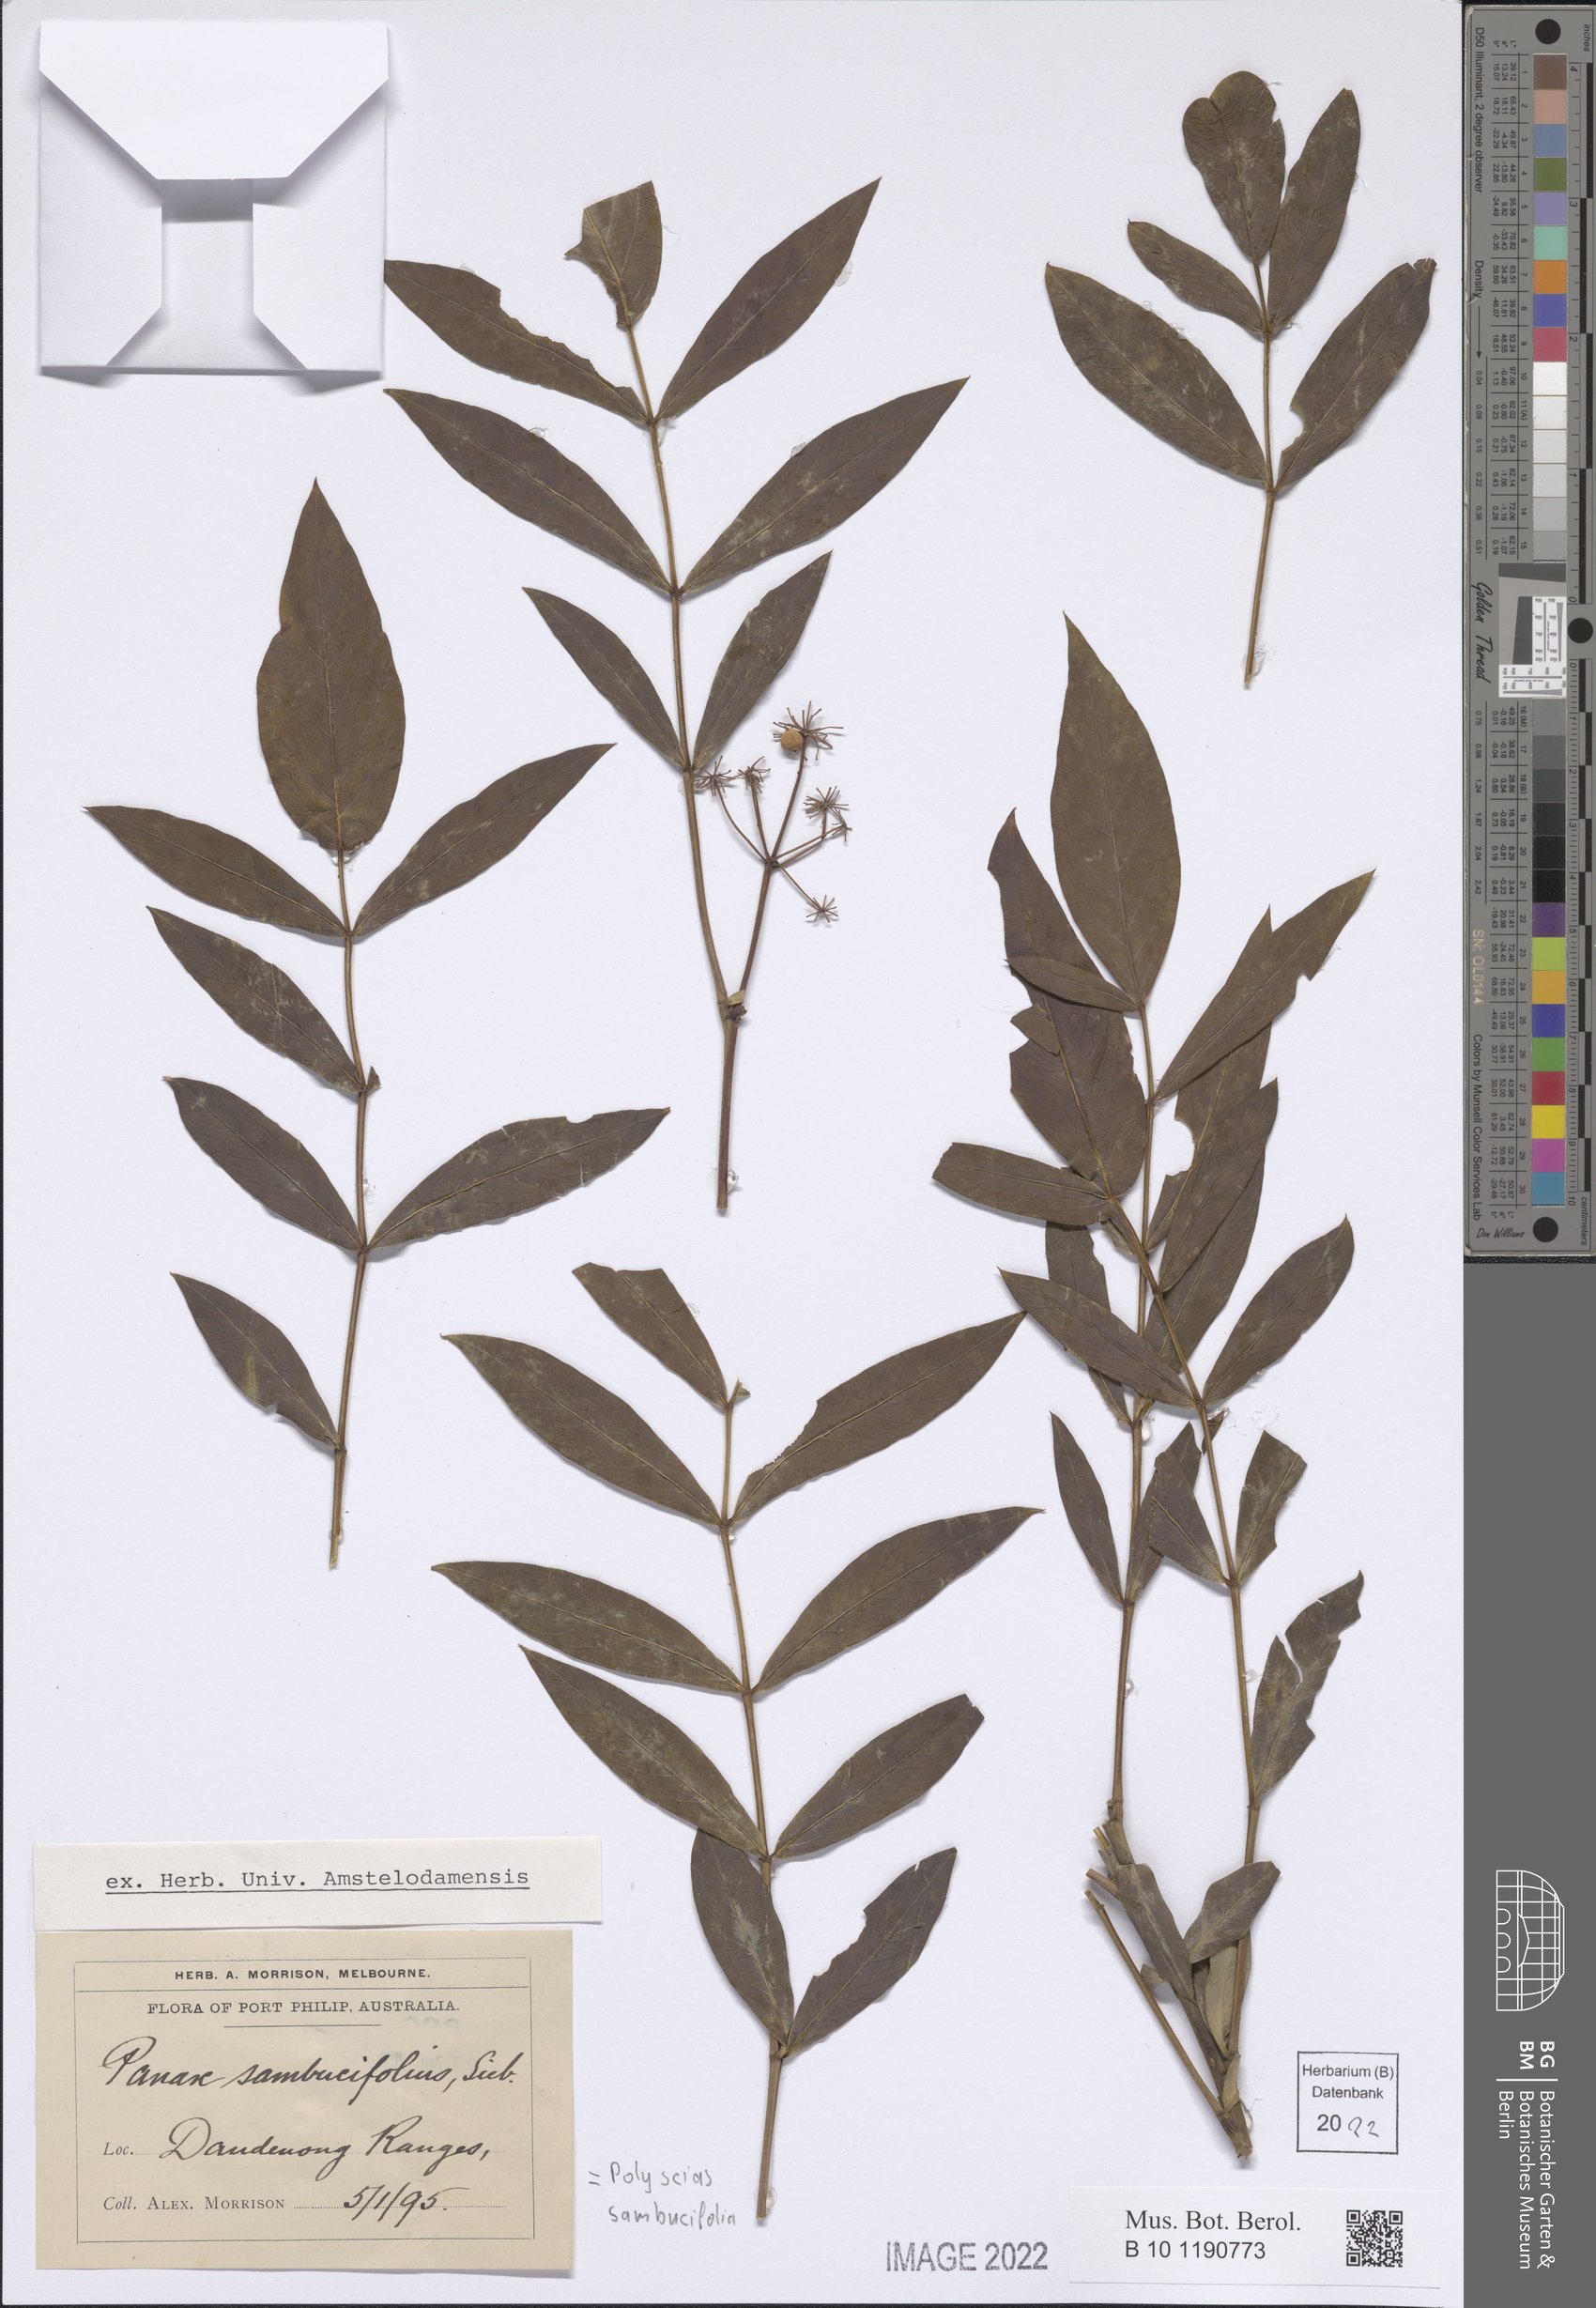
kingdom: Plantae
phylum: Tracheophyta
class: Magnoliopsida
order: Apiales
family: Araliaceae
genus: Polyscias
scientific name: Polyscias sambucifolia
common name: Elderberry-ash
